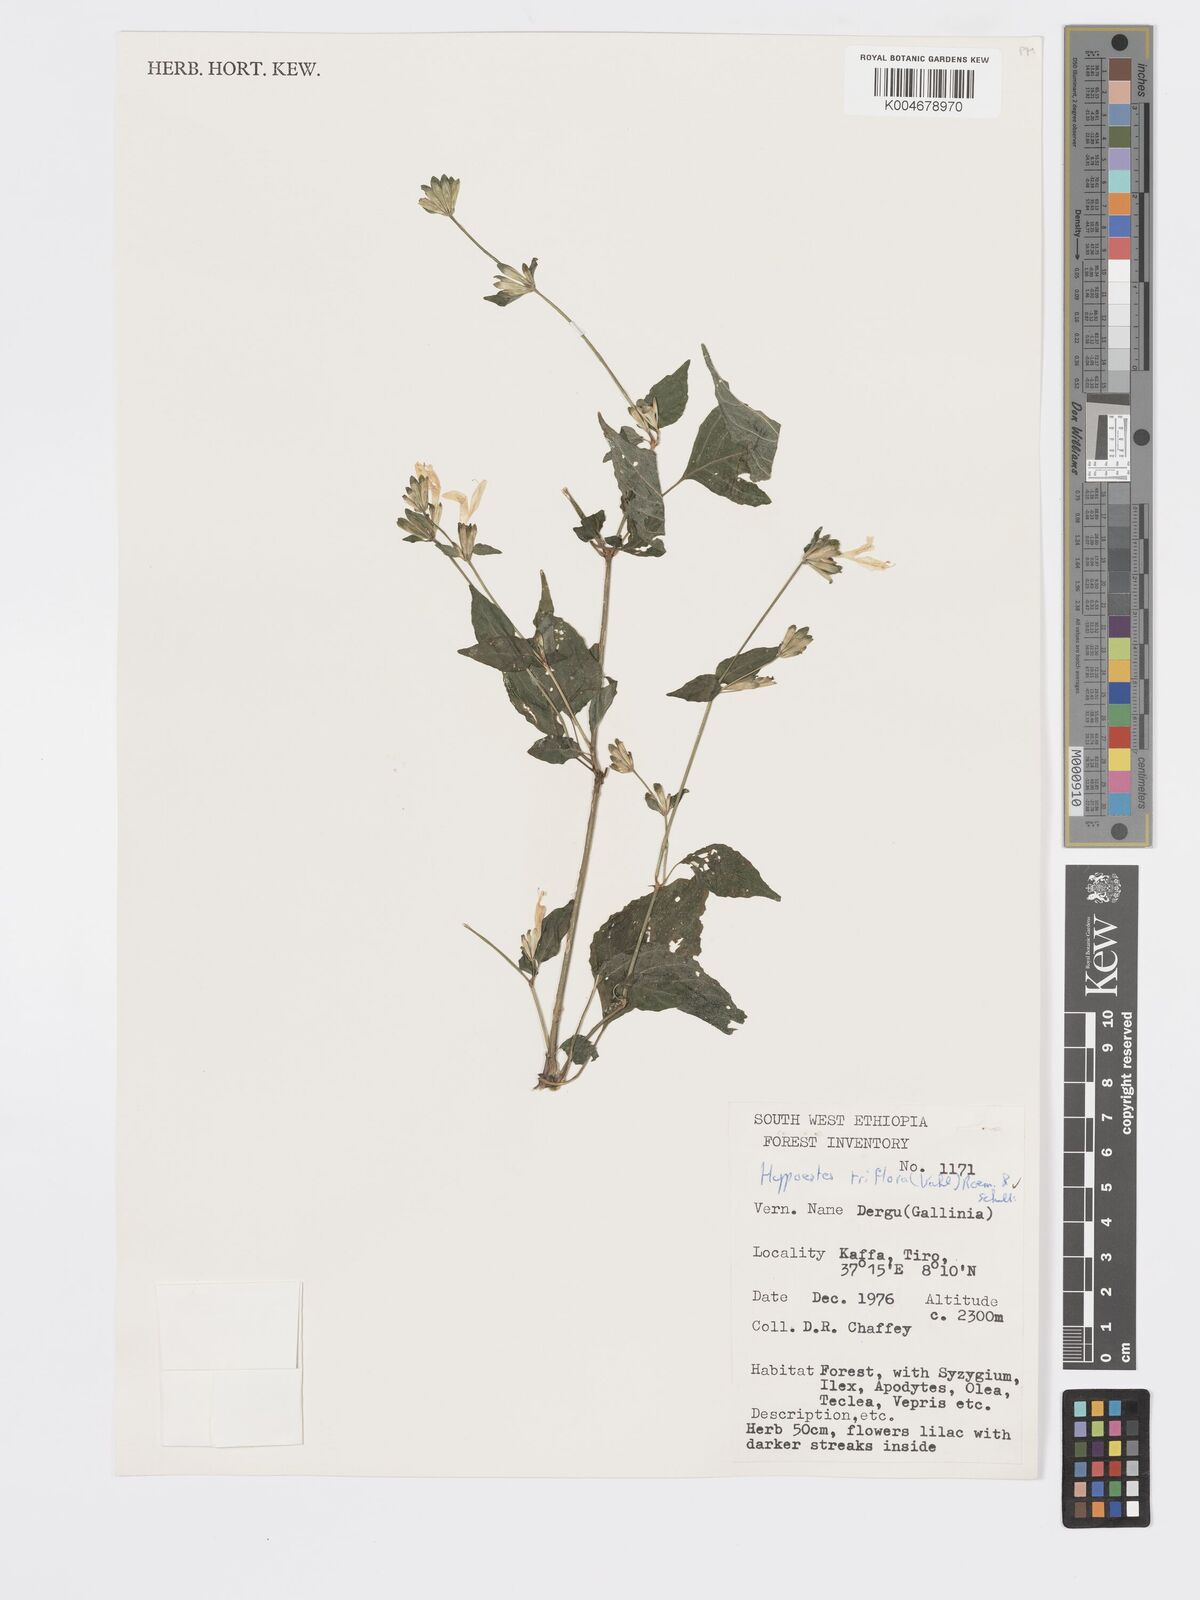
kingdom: Plantae
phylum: Tracheophyta
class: Magnoliopsida
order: Lamiales
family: Acanthaceae
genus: Hypoestes
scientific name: Hypoestes triflora
